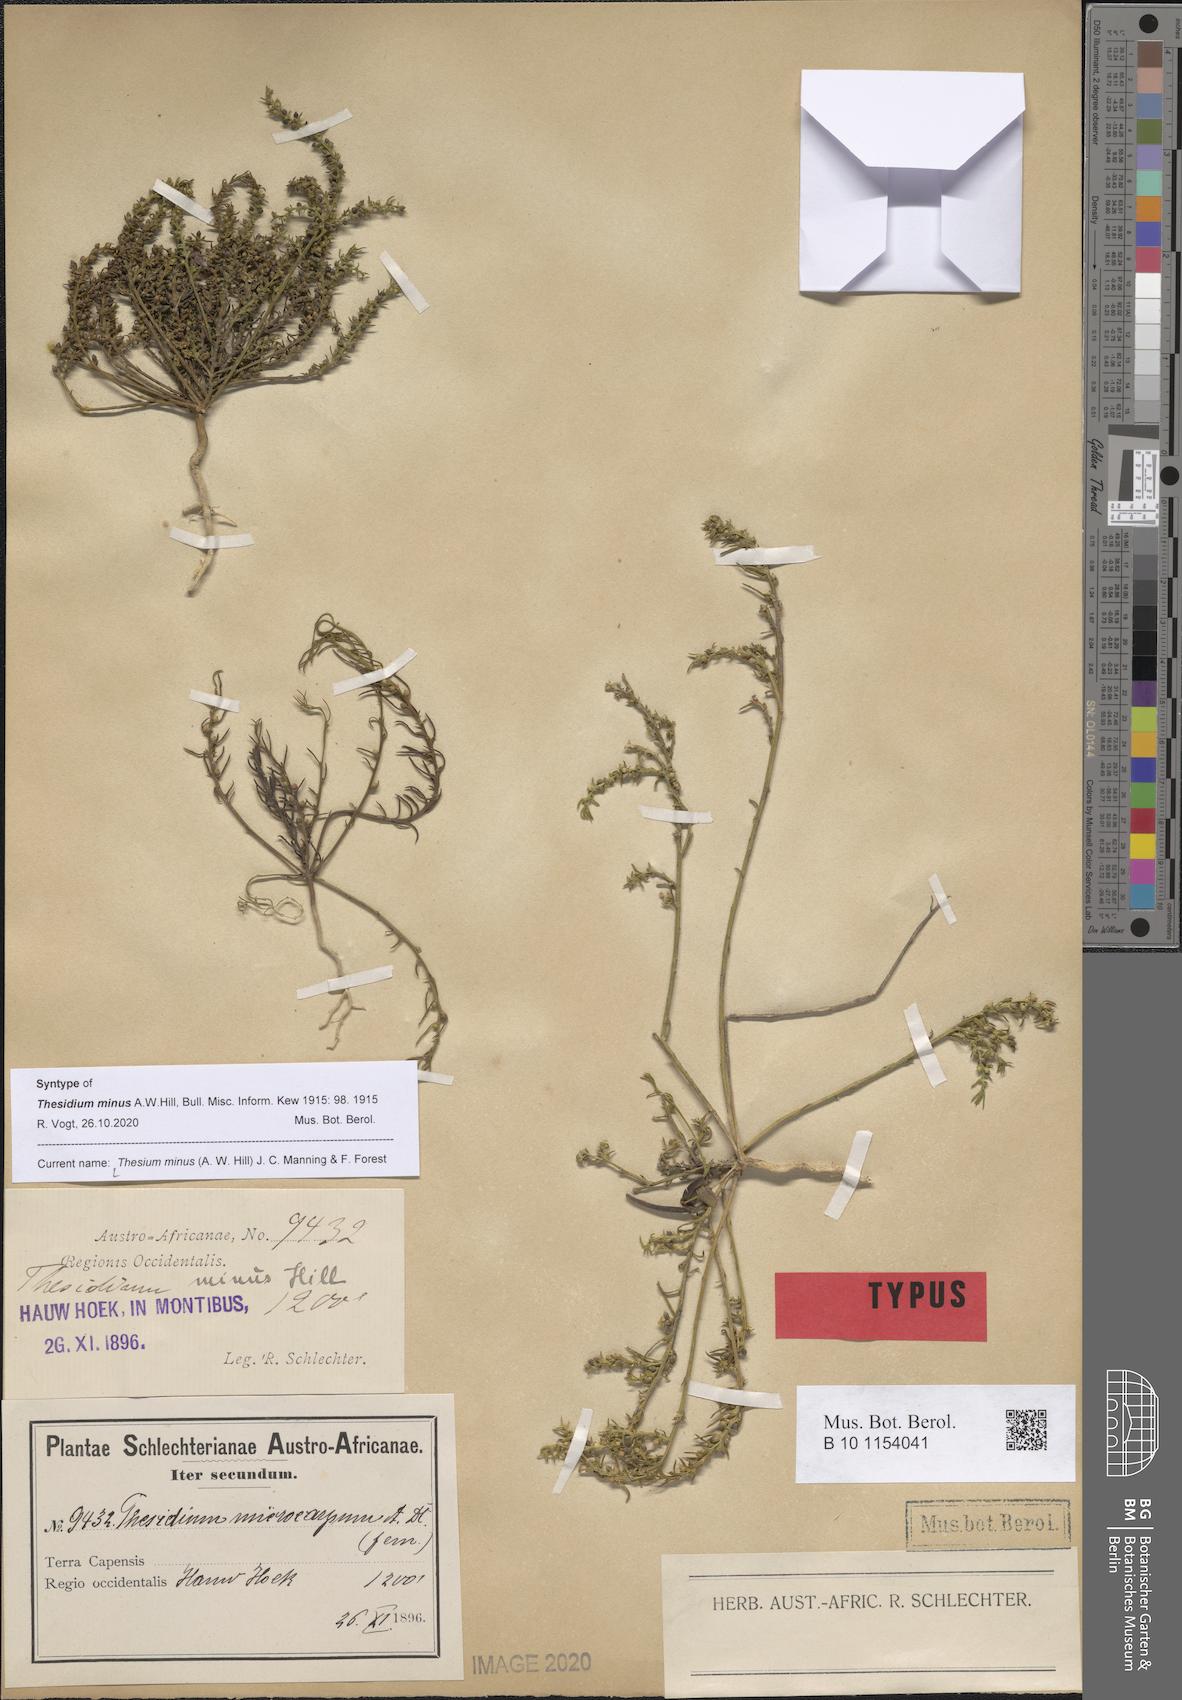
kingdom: Plantae
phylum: Tracheophyta
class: Magnoliopsida
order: Santalales
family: Thesiaceae
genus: Thesium
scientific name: Thesium minus
